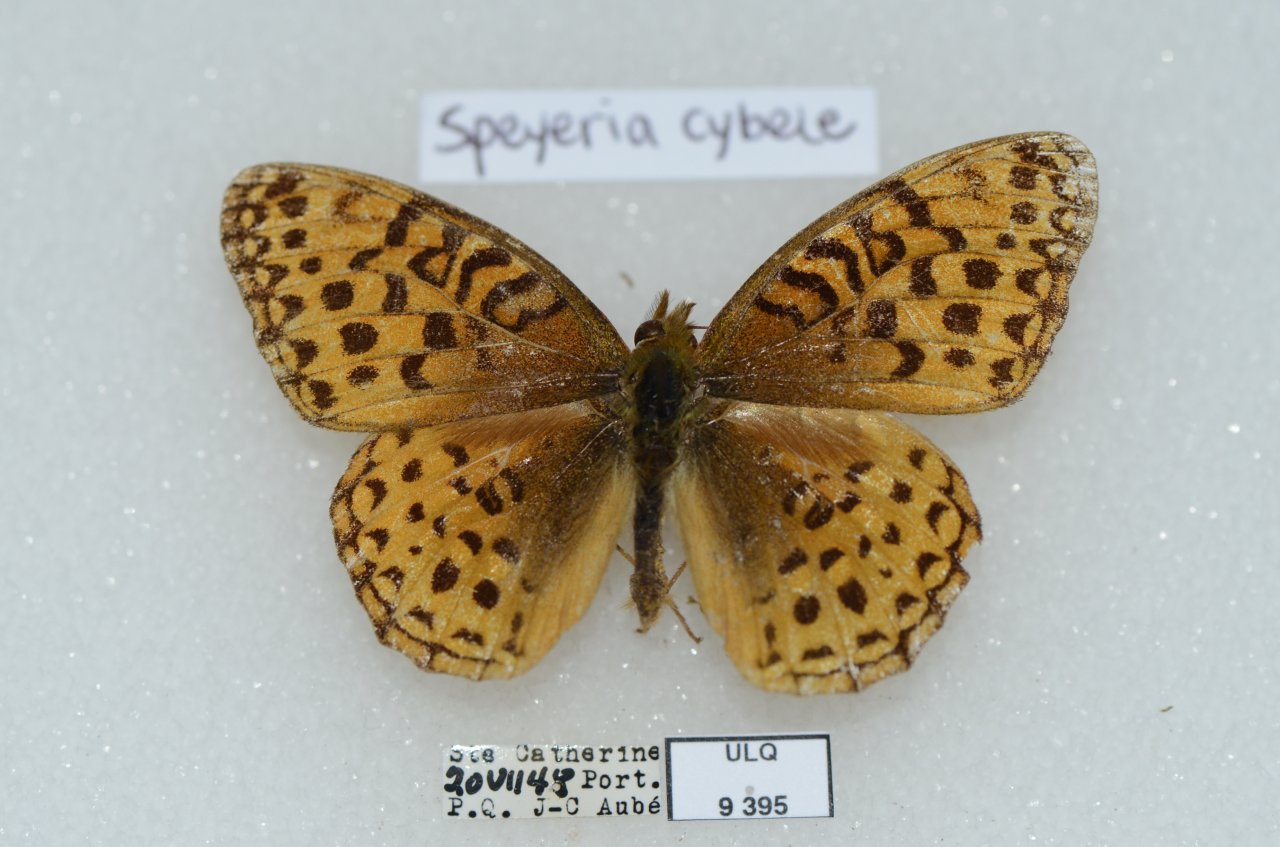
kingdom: Animalia
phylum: Arthropoda
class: Insecta
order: Lepidoptera
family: Nymphalidae
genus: Speyeria
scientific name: Speyeria atlantis
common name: Atlantis Fritillary
